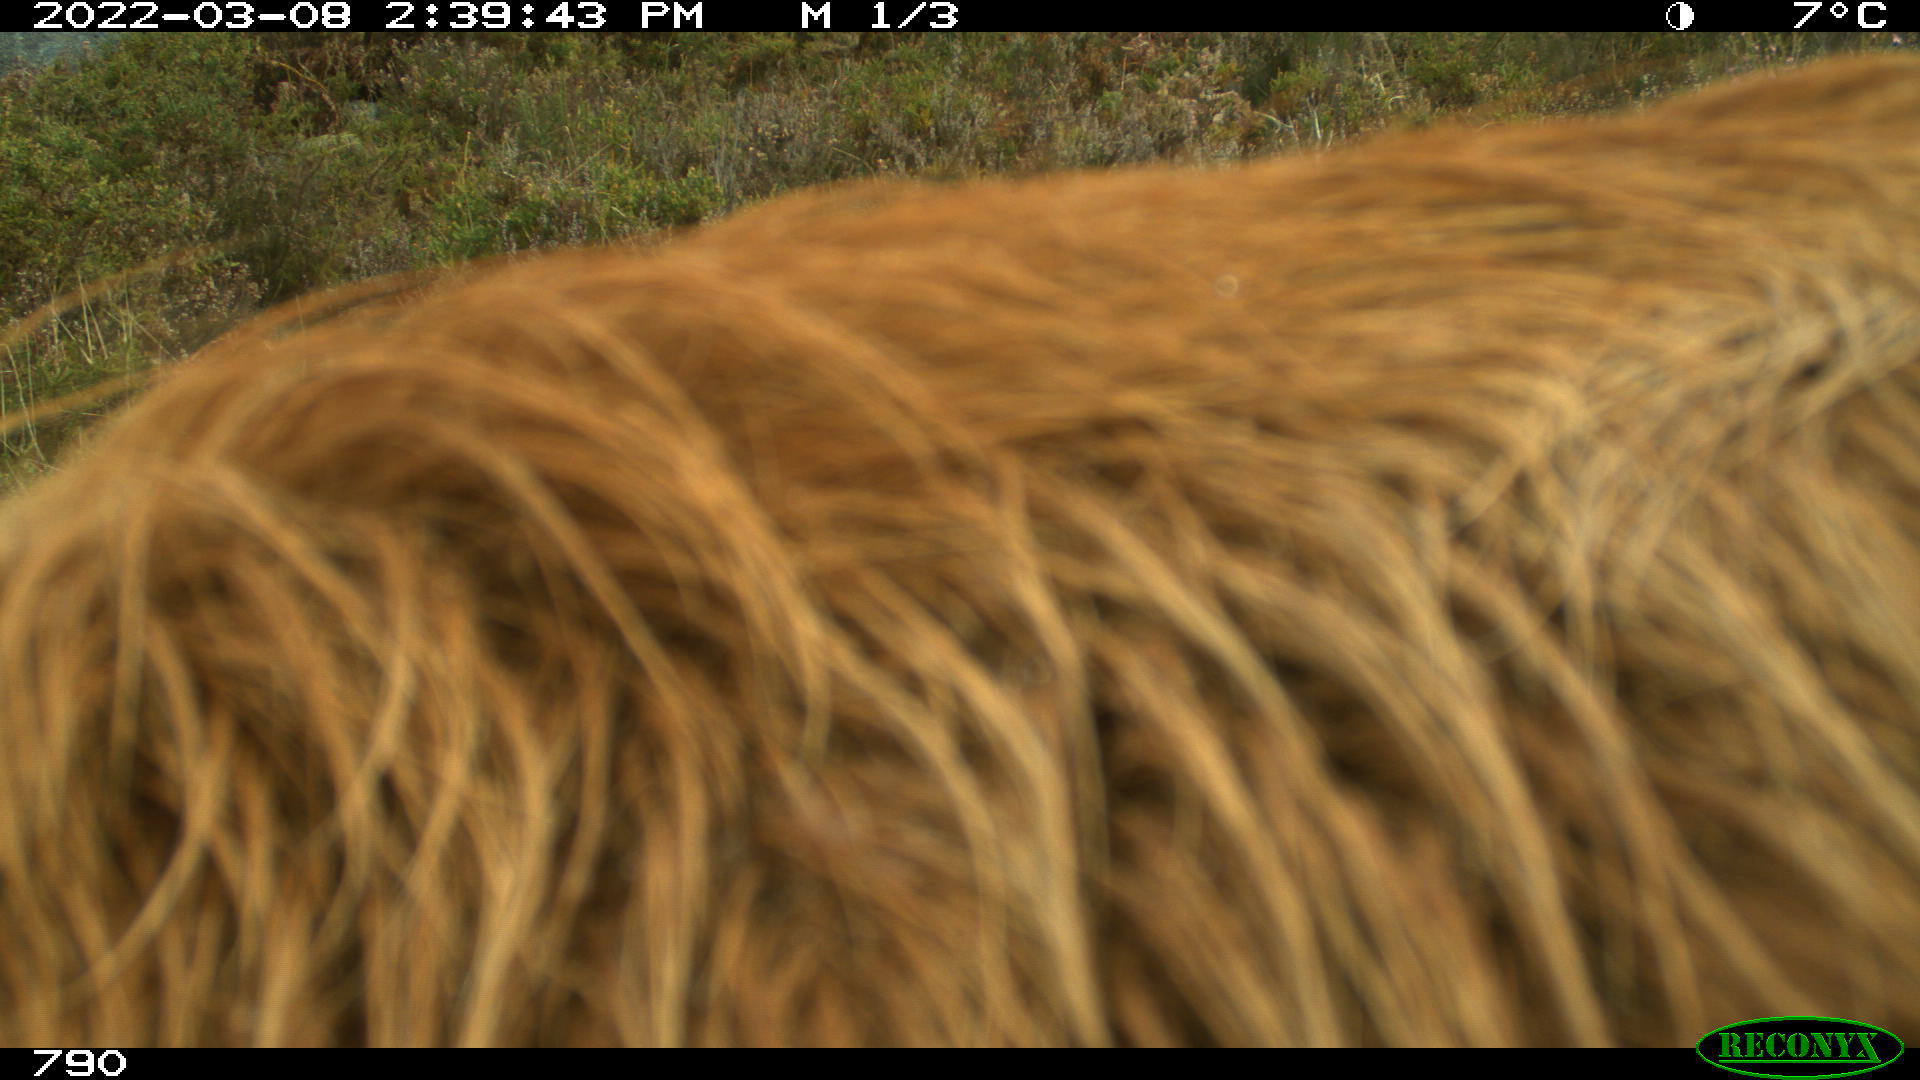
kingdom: Animalia
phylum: Chordata
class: Mammalia
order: Perissodactyla
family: Equidae
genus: Equus
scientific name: Equus caballus
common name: Horse
